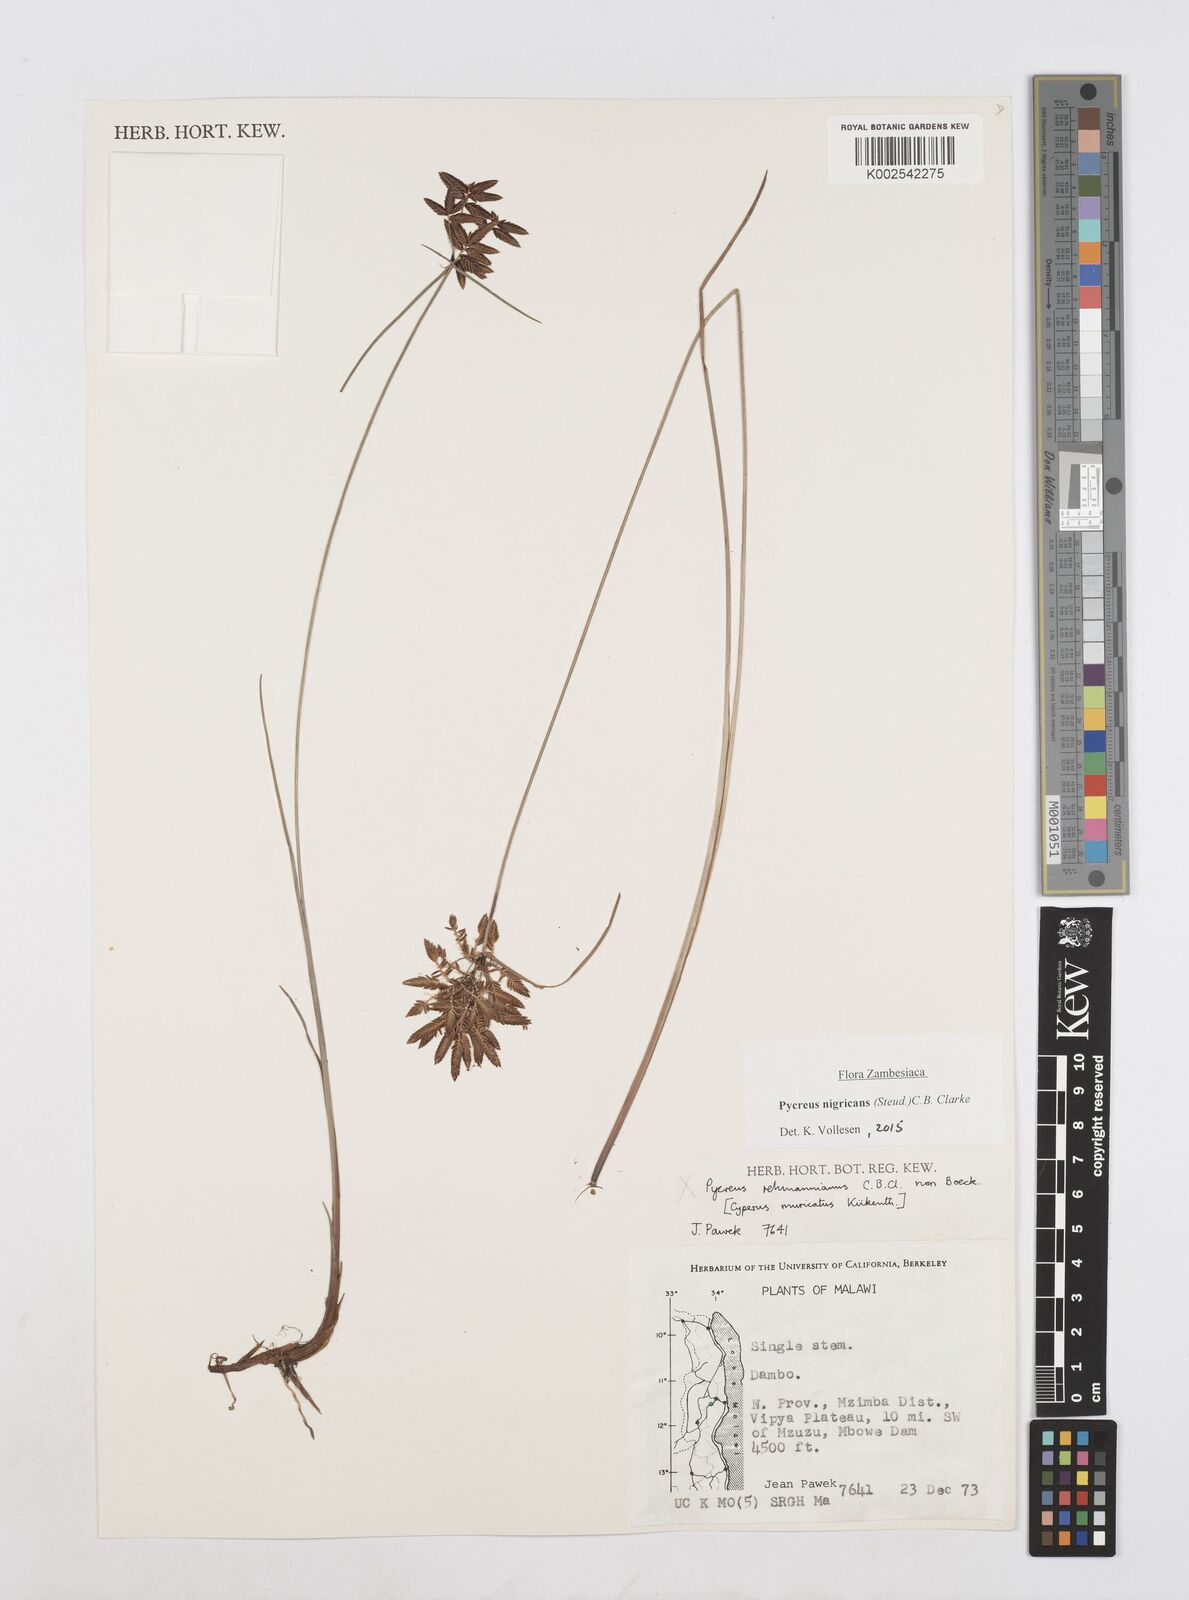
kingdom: Plantae
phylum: Tracheophyta
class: Liliopsida
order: Poales
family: Cyperaceae
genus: Cyperus
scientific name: Cyperus nigricans
